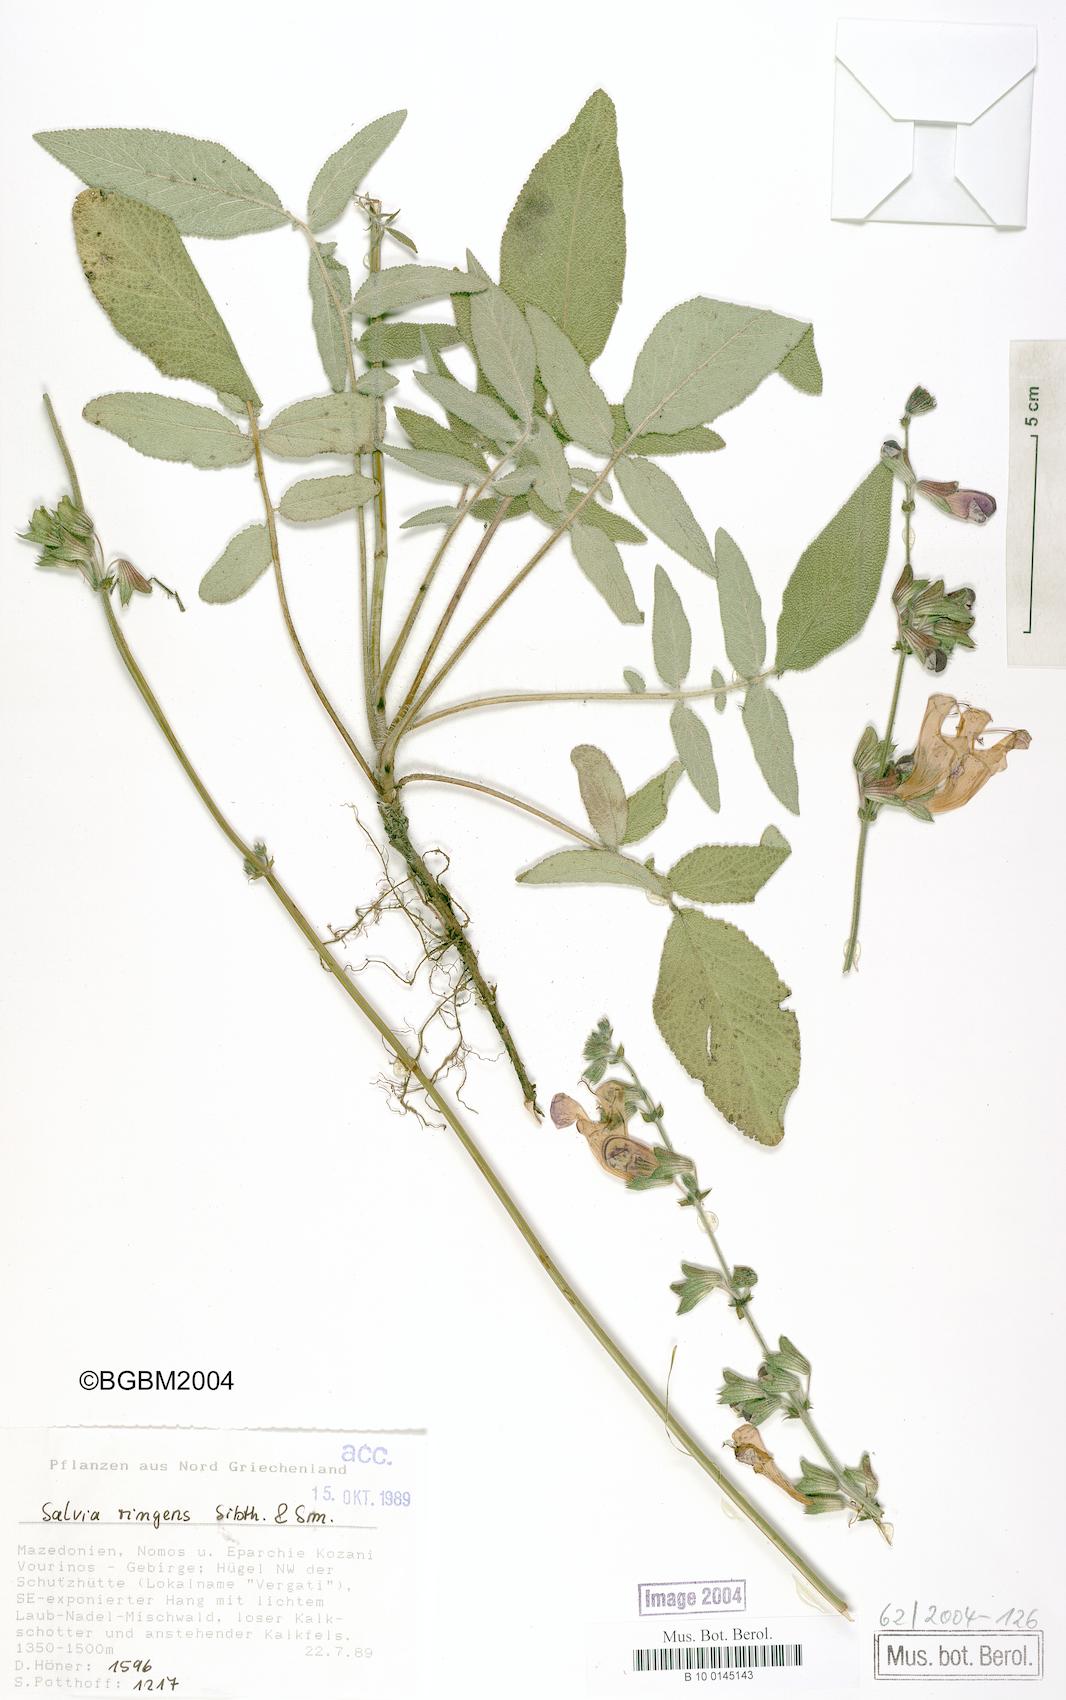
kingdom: Plantae
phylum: Tracheophyta
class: Magnoliopsida
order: Lamiales
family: Lamiaceae
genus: Salvia
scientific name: Salvia ringens
